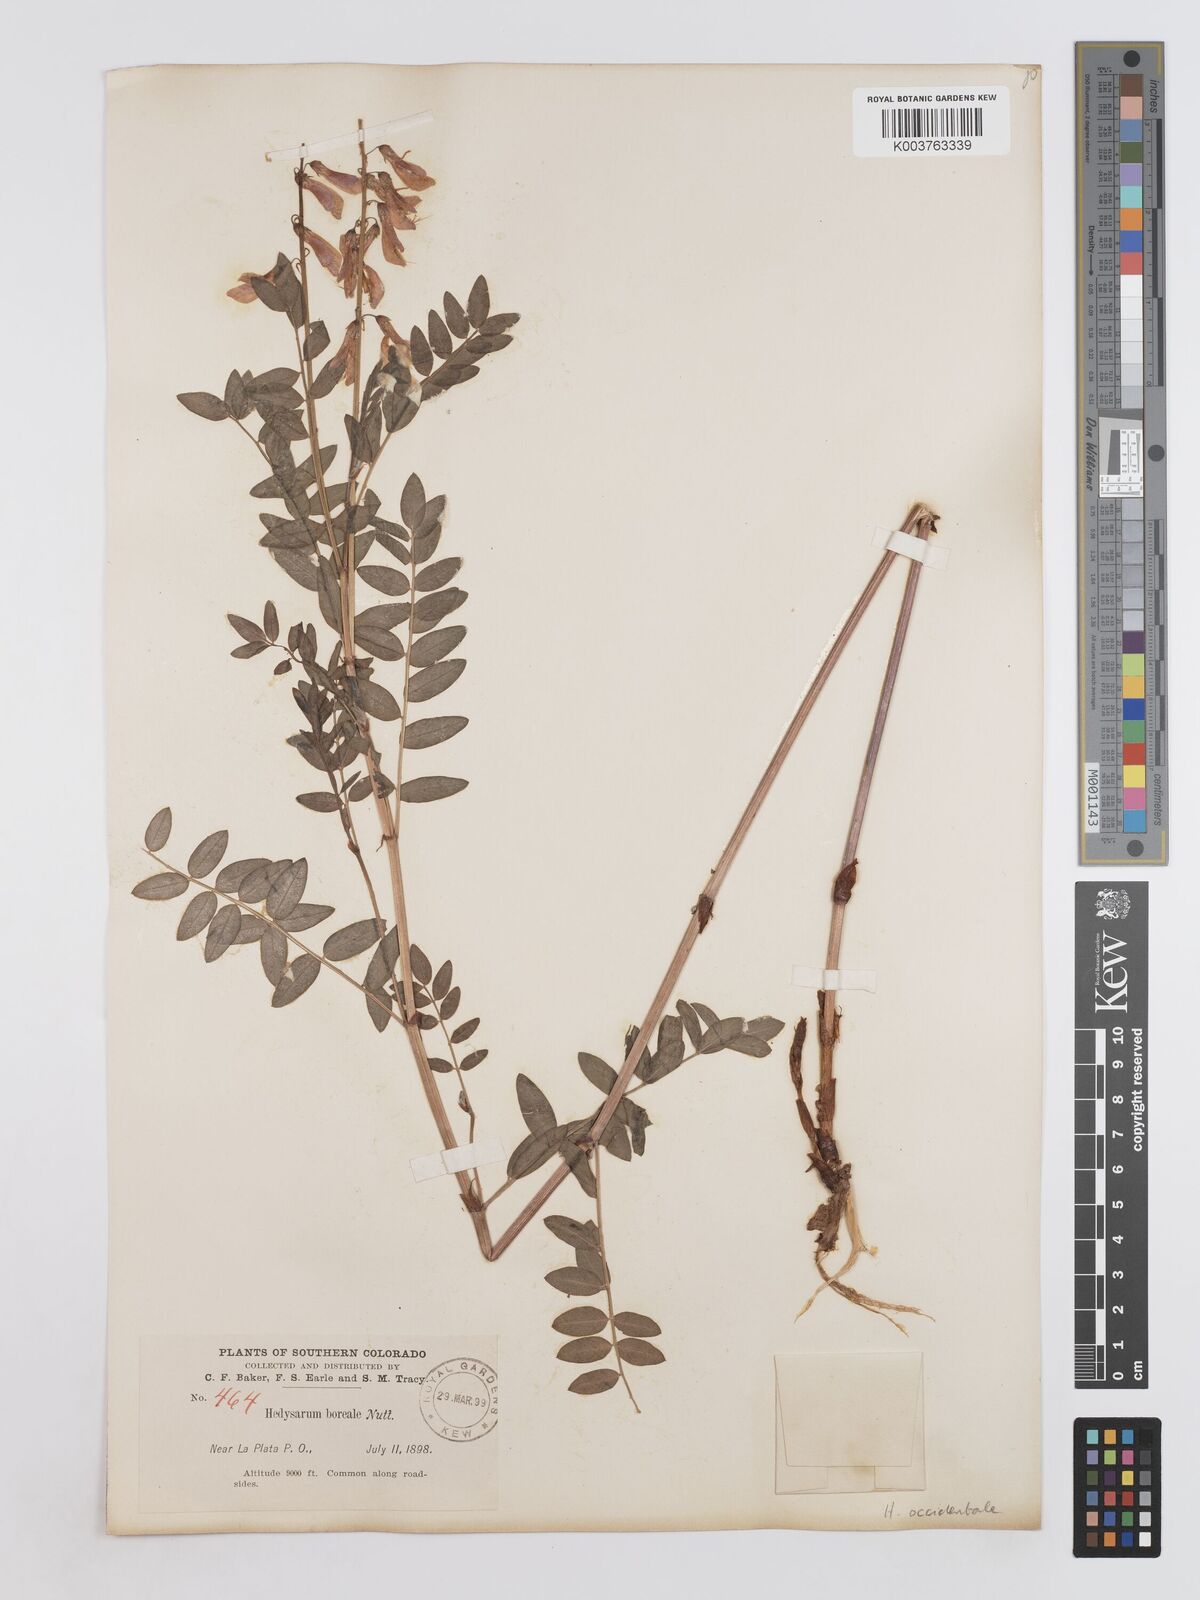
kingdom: Plantae
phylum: Tracheophyta
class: Magnoliopsida
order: Fabales
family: Fabaceae
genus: Hedysarum
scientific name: Hedysarum occidentale
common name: Western hedysarum
